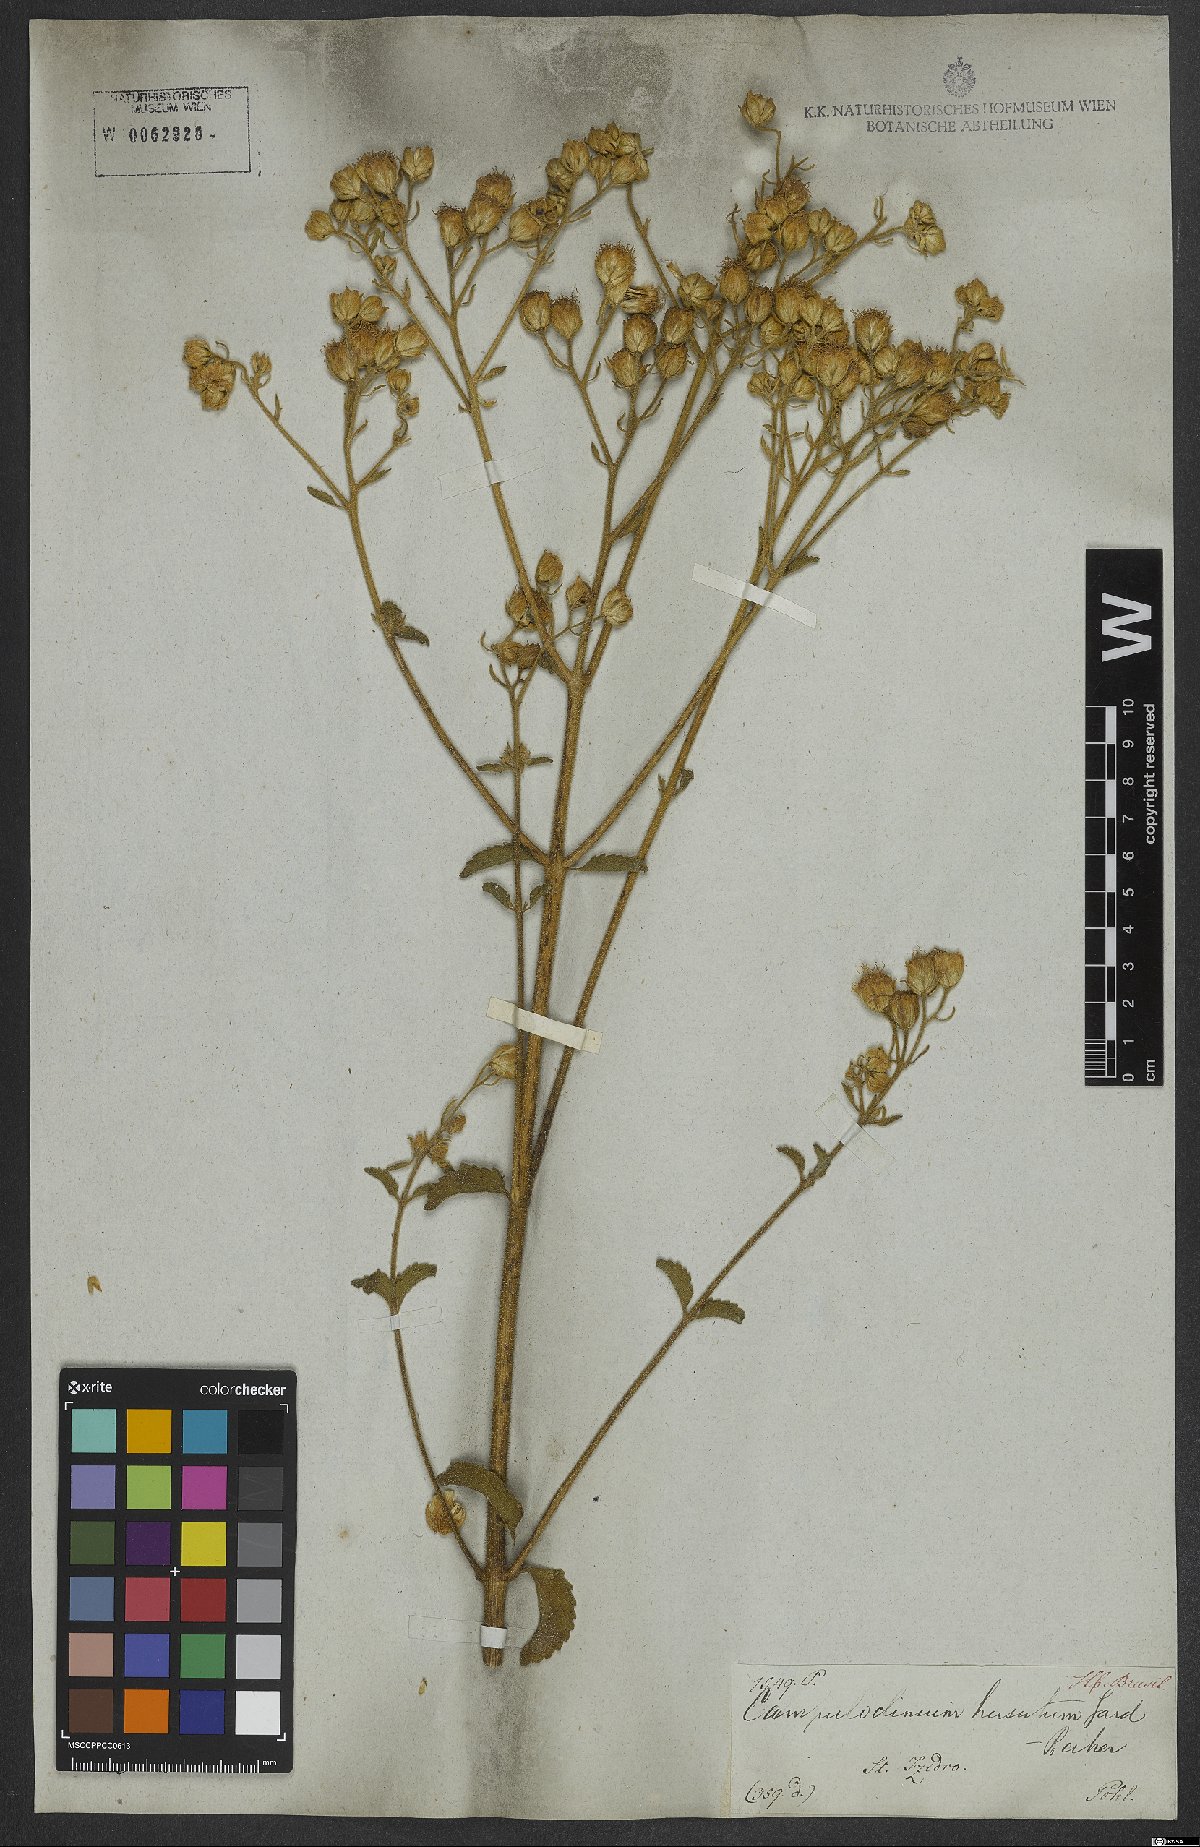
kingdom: Plantae
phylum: Tracheophyta
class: Magnoliopsida
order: Asterales
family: Asteraceae
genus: Campuloclinium
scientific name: Campuloclinium hirsutum
